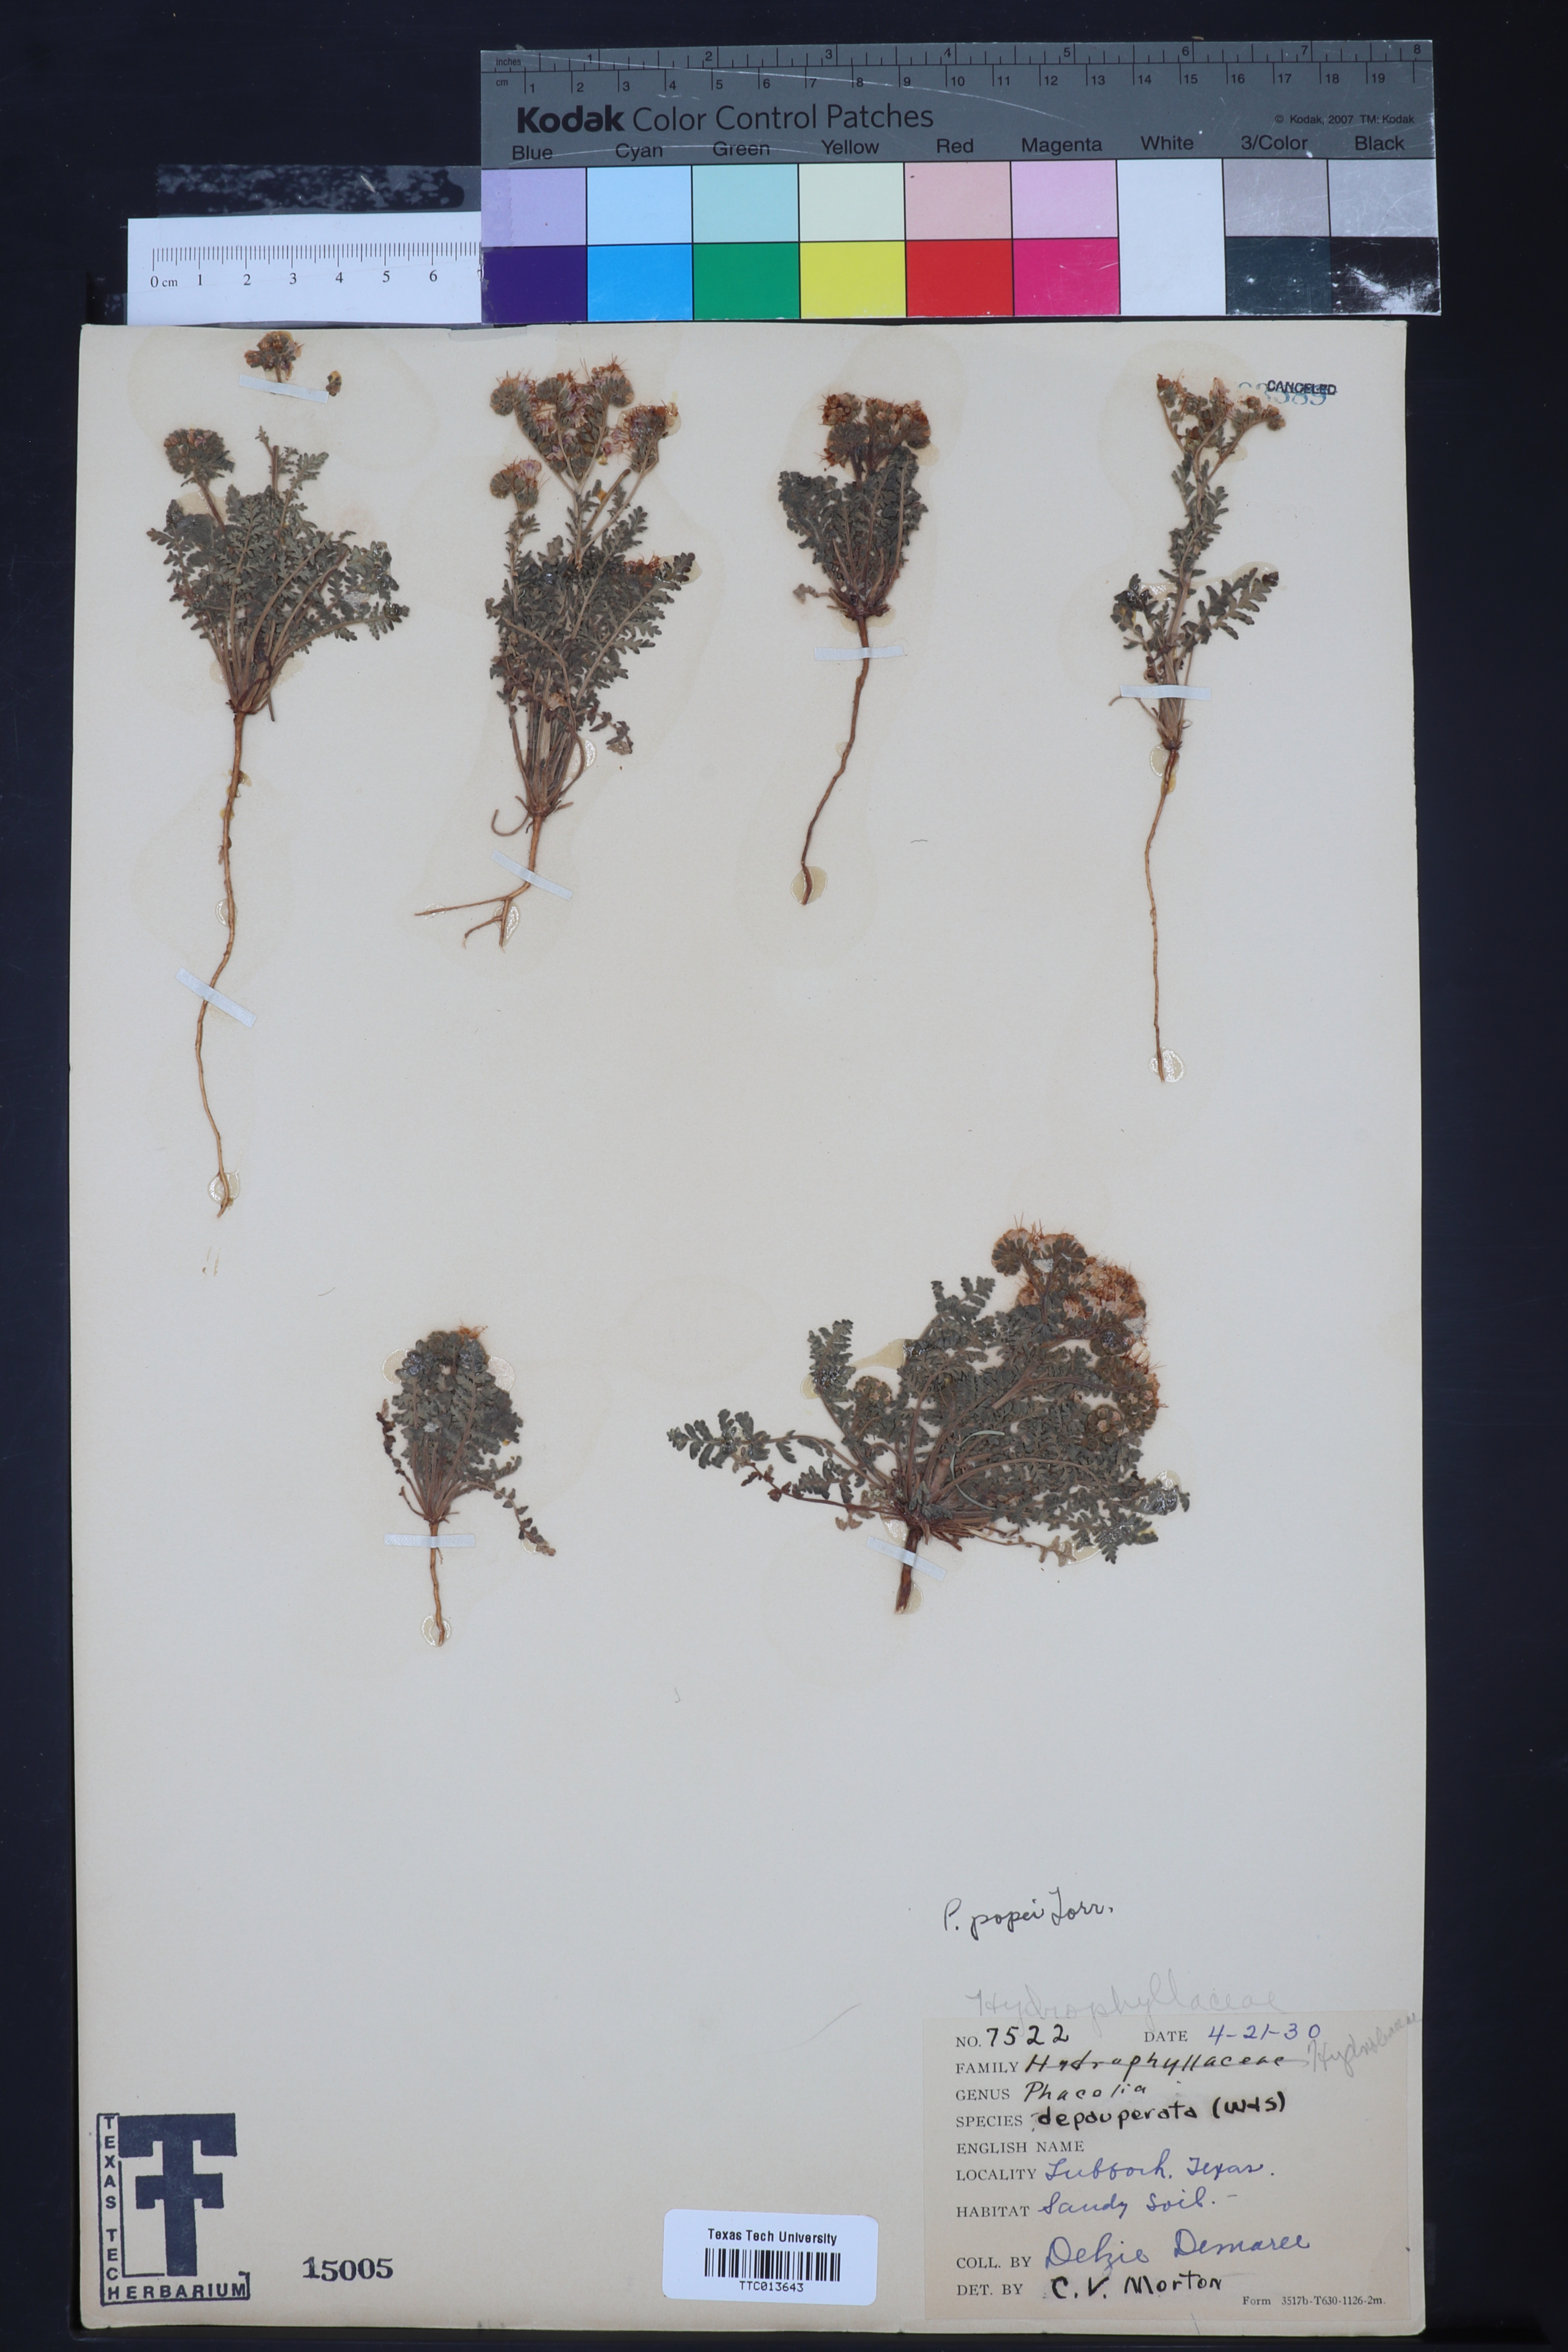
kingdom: Plantae
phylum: Tracheophyta
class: Magnoliopsida
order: Boraginales
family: Hydrophyllaceae
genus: Phacelia
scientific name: Phacelia popei
